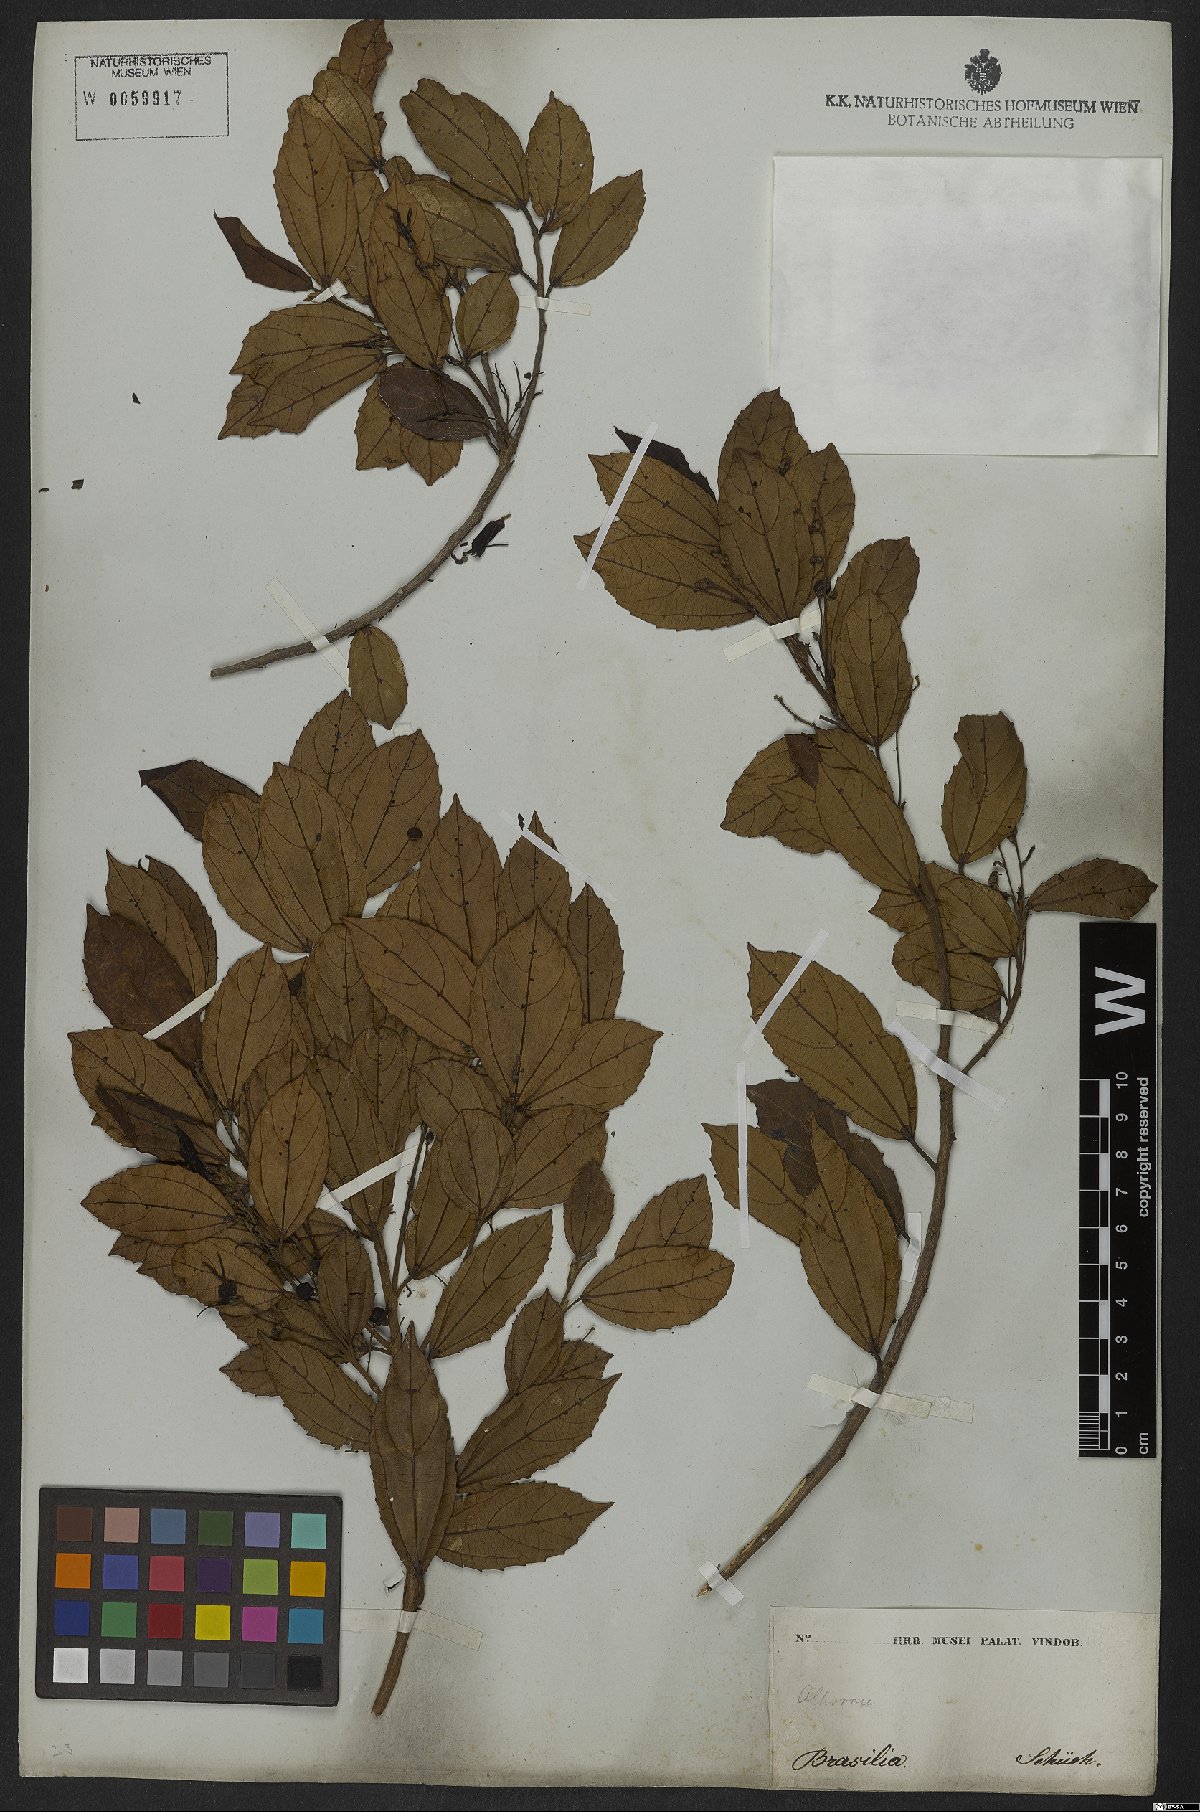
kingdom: Plantae
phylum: Tracheophyta
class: Magnoliopsida
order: Malpighiales
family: Euphorbiaceae
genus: Alchornea
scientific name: Alchornea triplinervia
